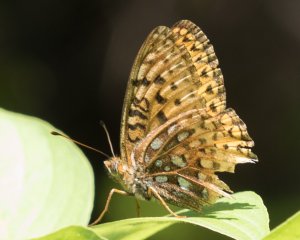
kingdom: Animalia
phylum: Arthropoda
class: Insecta
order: Lepidoptera
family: Nymphalidae
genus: Speyeria
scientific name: Speyeria atlantis
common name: Atlantis Fritillary
